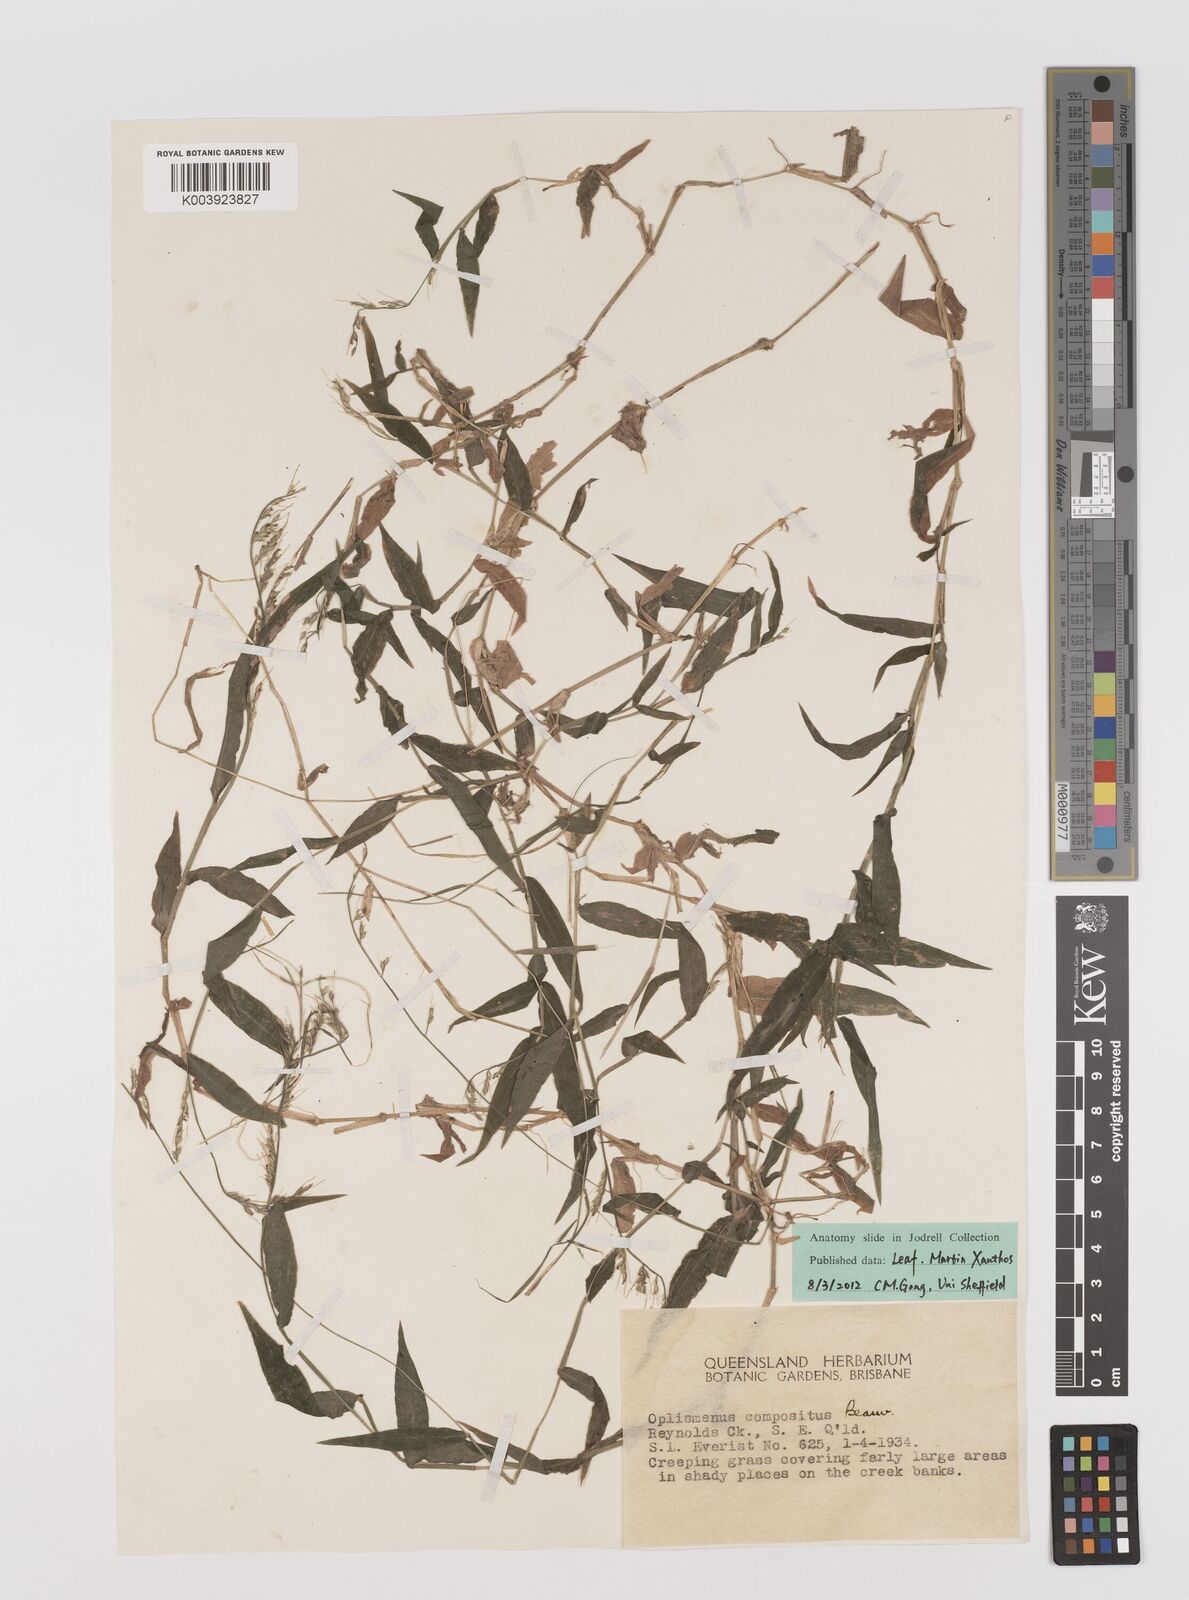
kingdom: Plantae
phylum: Tracheophyta
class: Liliopsida
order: Poales
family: Poaceae
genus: Oplismenus
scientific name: Oplismenus compositus
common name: Running mountain grass
